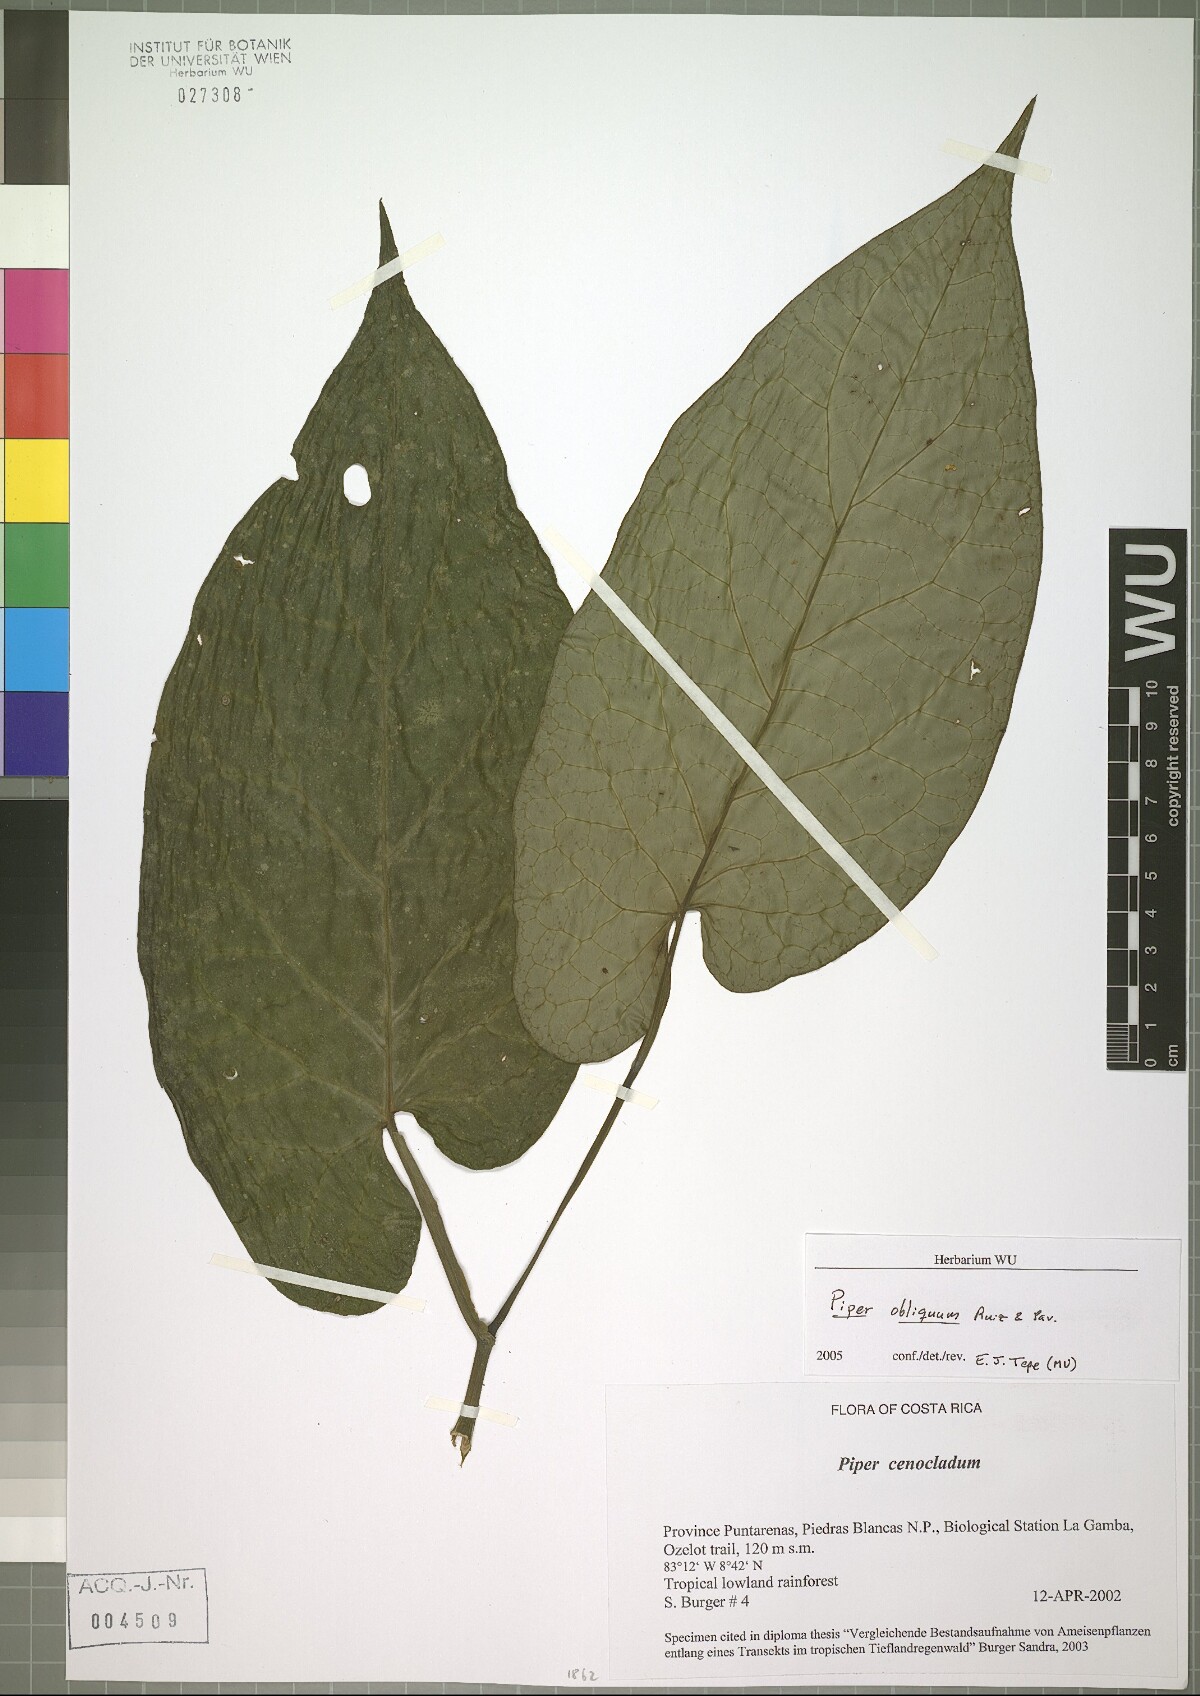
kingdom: Plantae
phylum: Tracheophyta
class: Magnoliopsida
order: Piperales
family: Piperaceae
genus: Piper
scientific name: Piper obliquum
